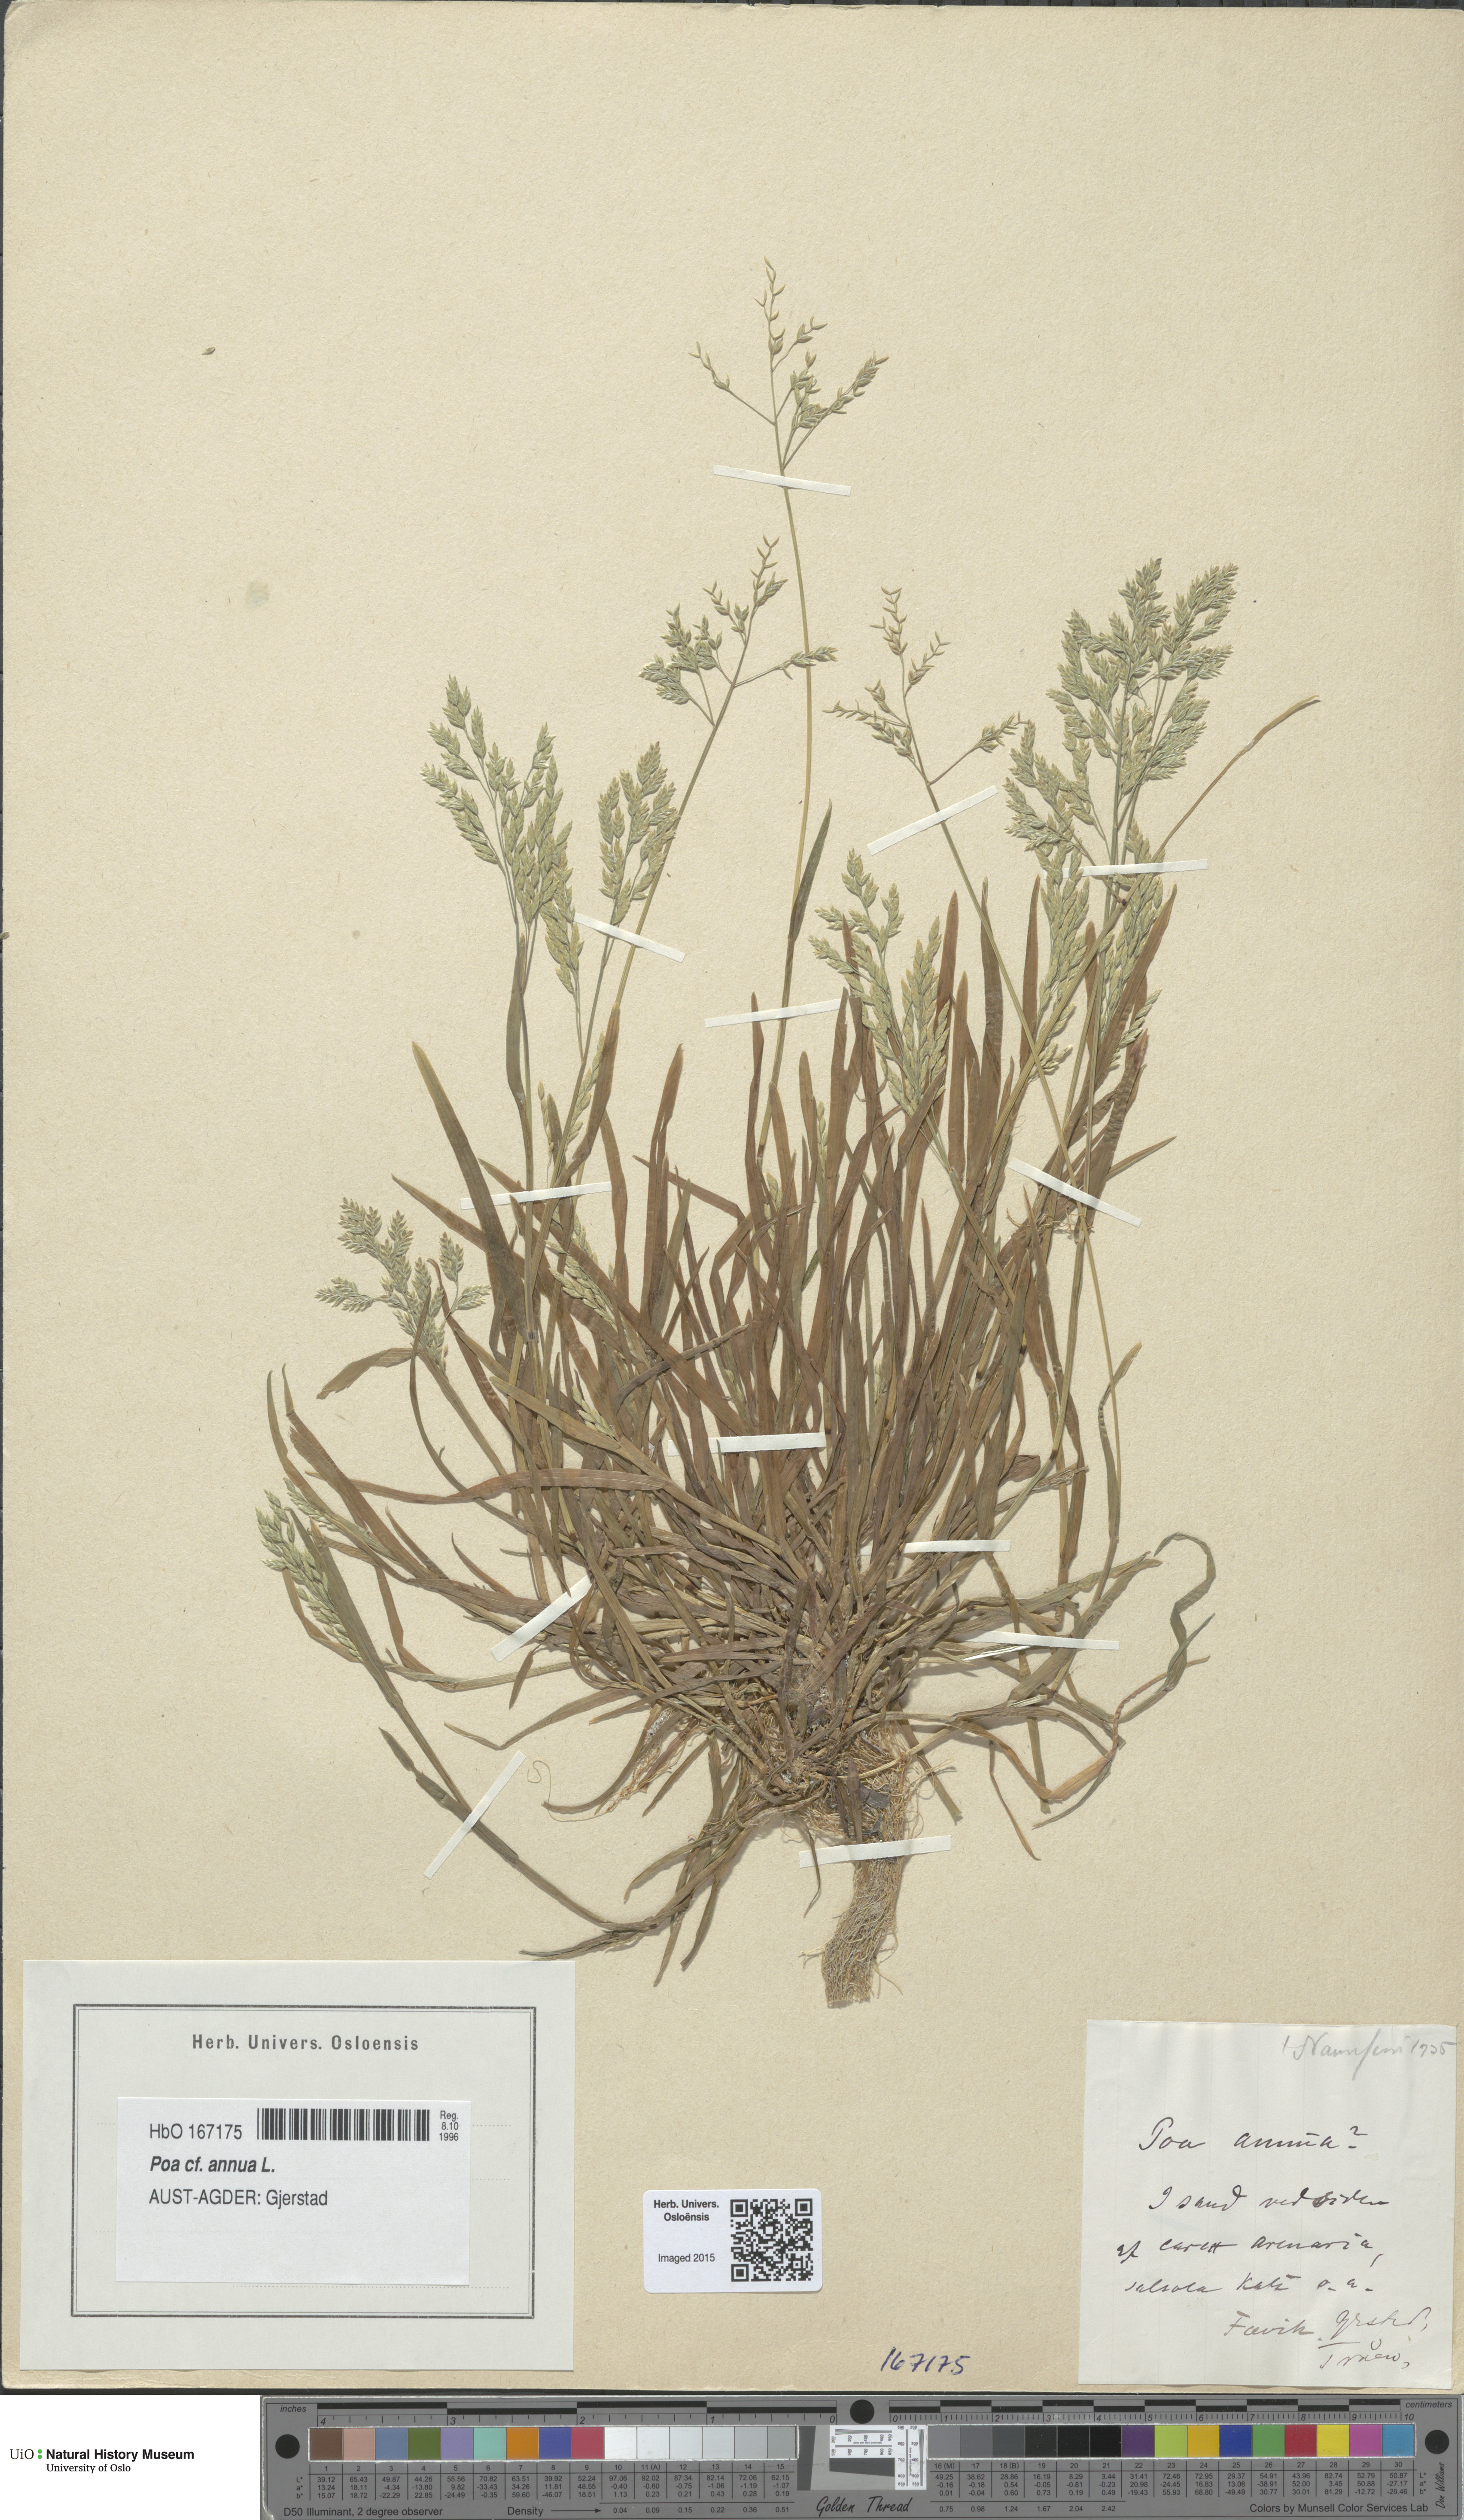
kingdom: Plantae
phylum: Tracheophyta
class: Liliopsida
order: Poales
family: Poaceae
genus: Poa
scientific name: Poa annua
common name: Annual bluegrass
